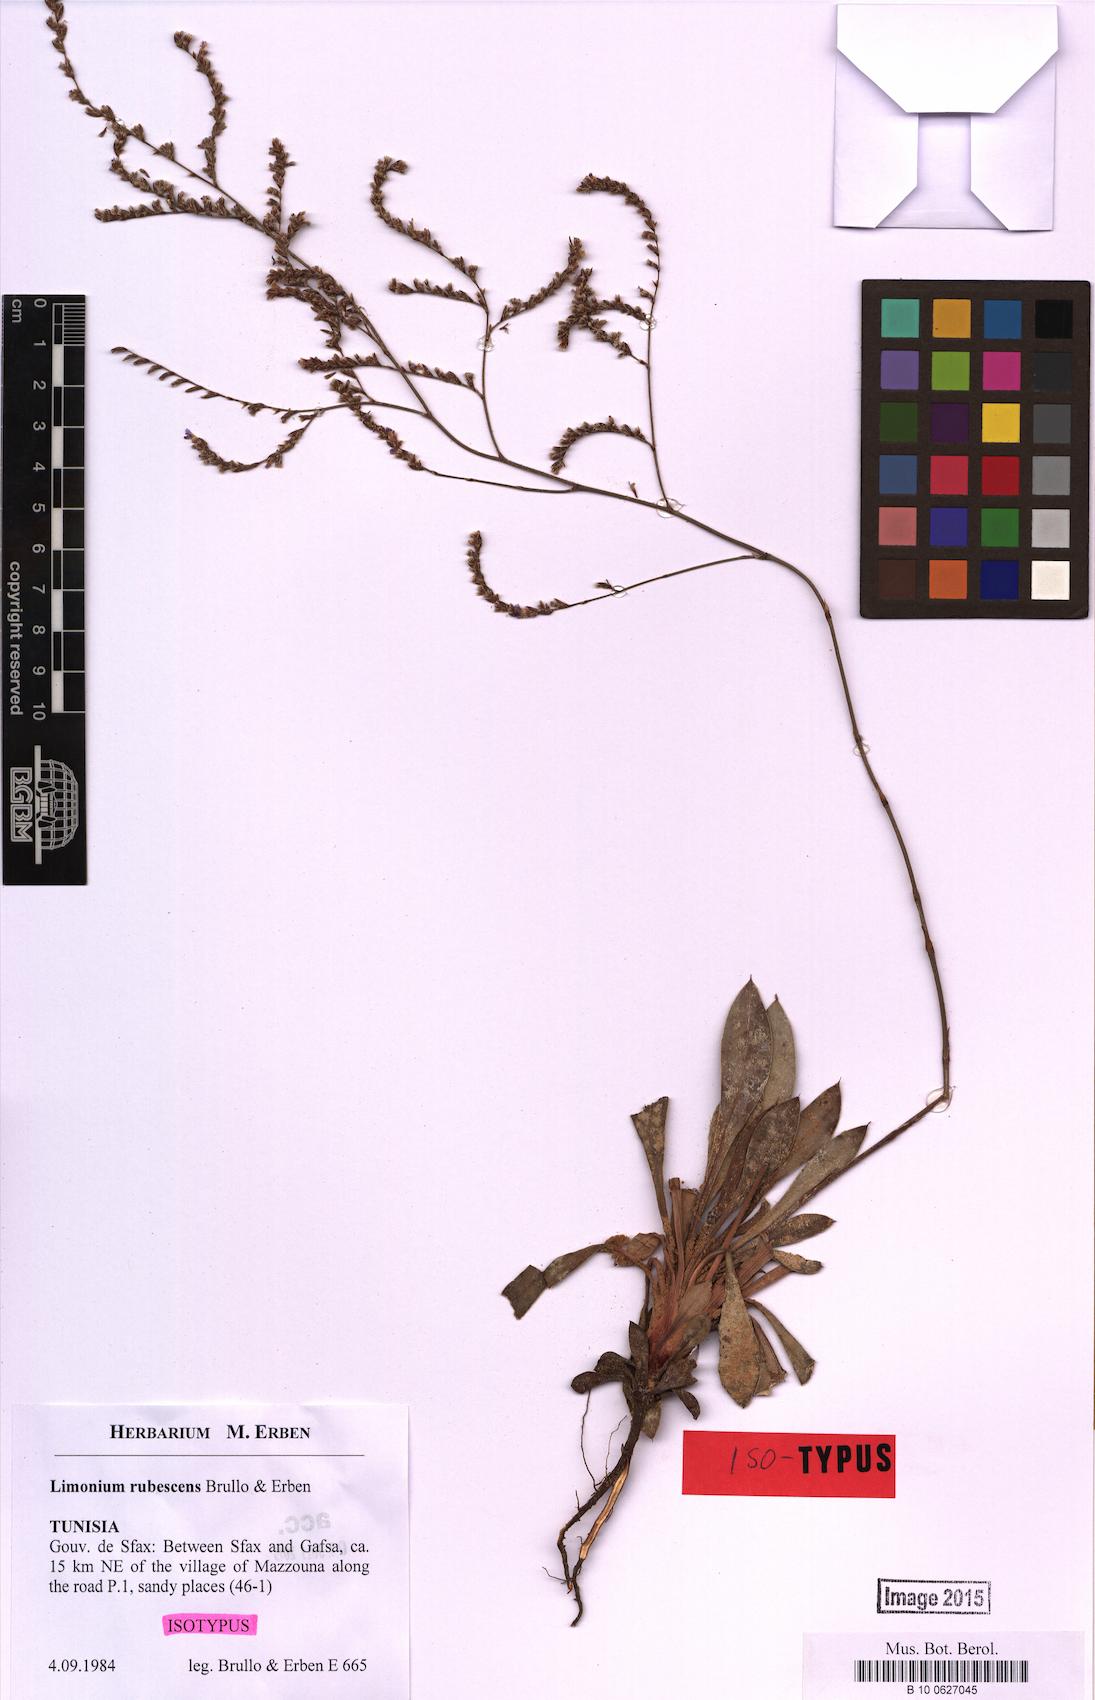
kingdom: Plantae
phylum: Tracheophyta
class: Magnoliopsida
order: Caryophyllales
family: Plumbaginaceae
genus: Limonium
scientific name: Limonium rubescens
